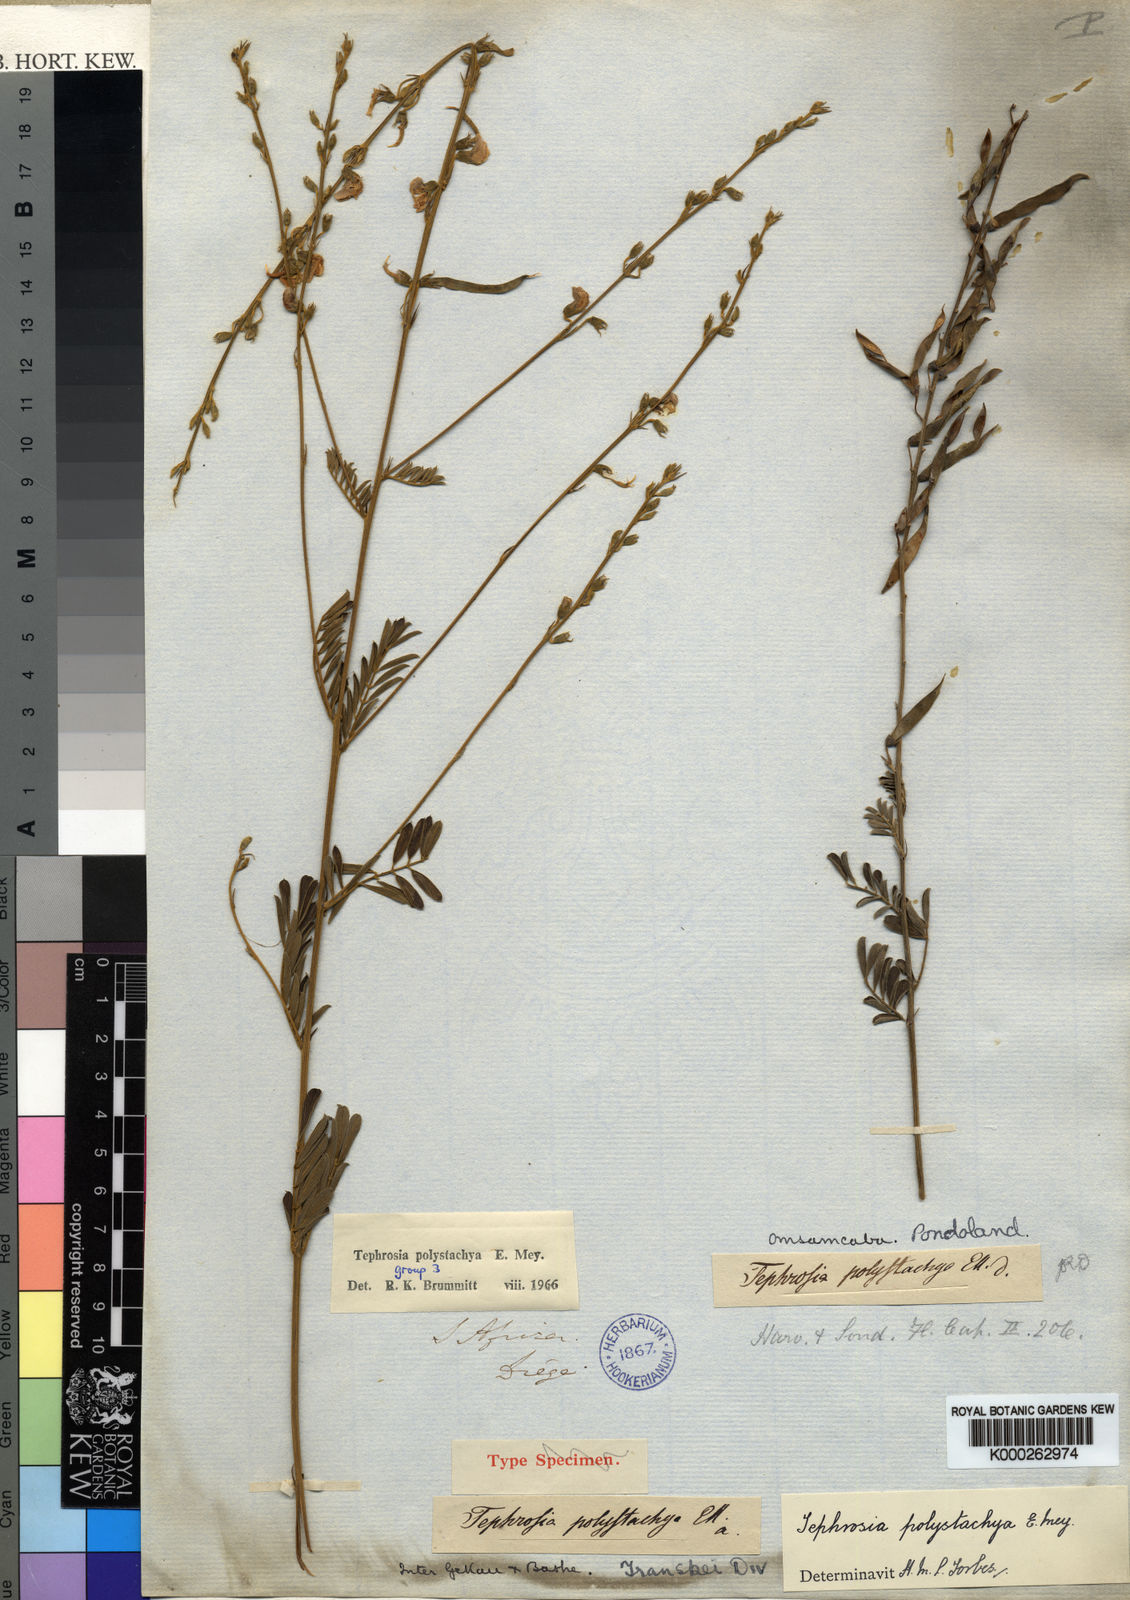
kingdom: Plantae
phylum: Tracheophyta
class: Magnoliopsida
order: Fabales
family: Fabaceae
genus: Tephrosia
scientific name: Tephrosia polystachya
